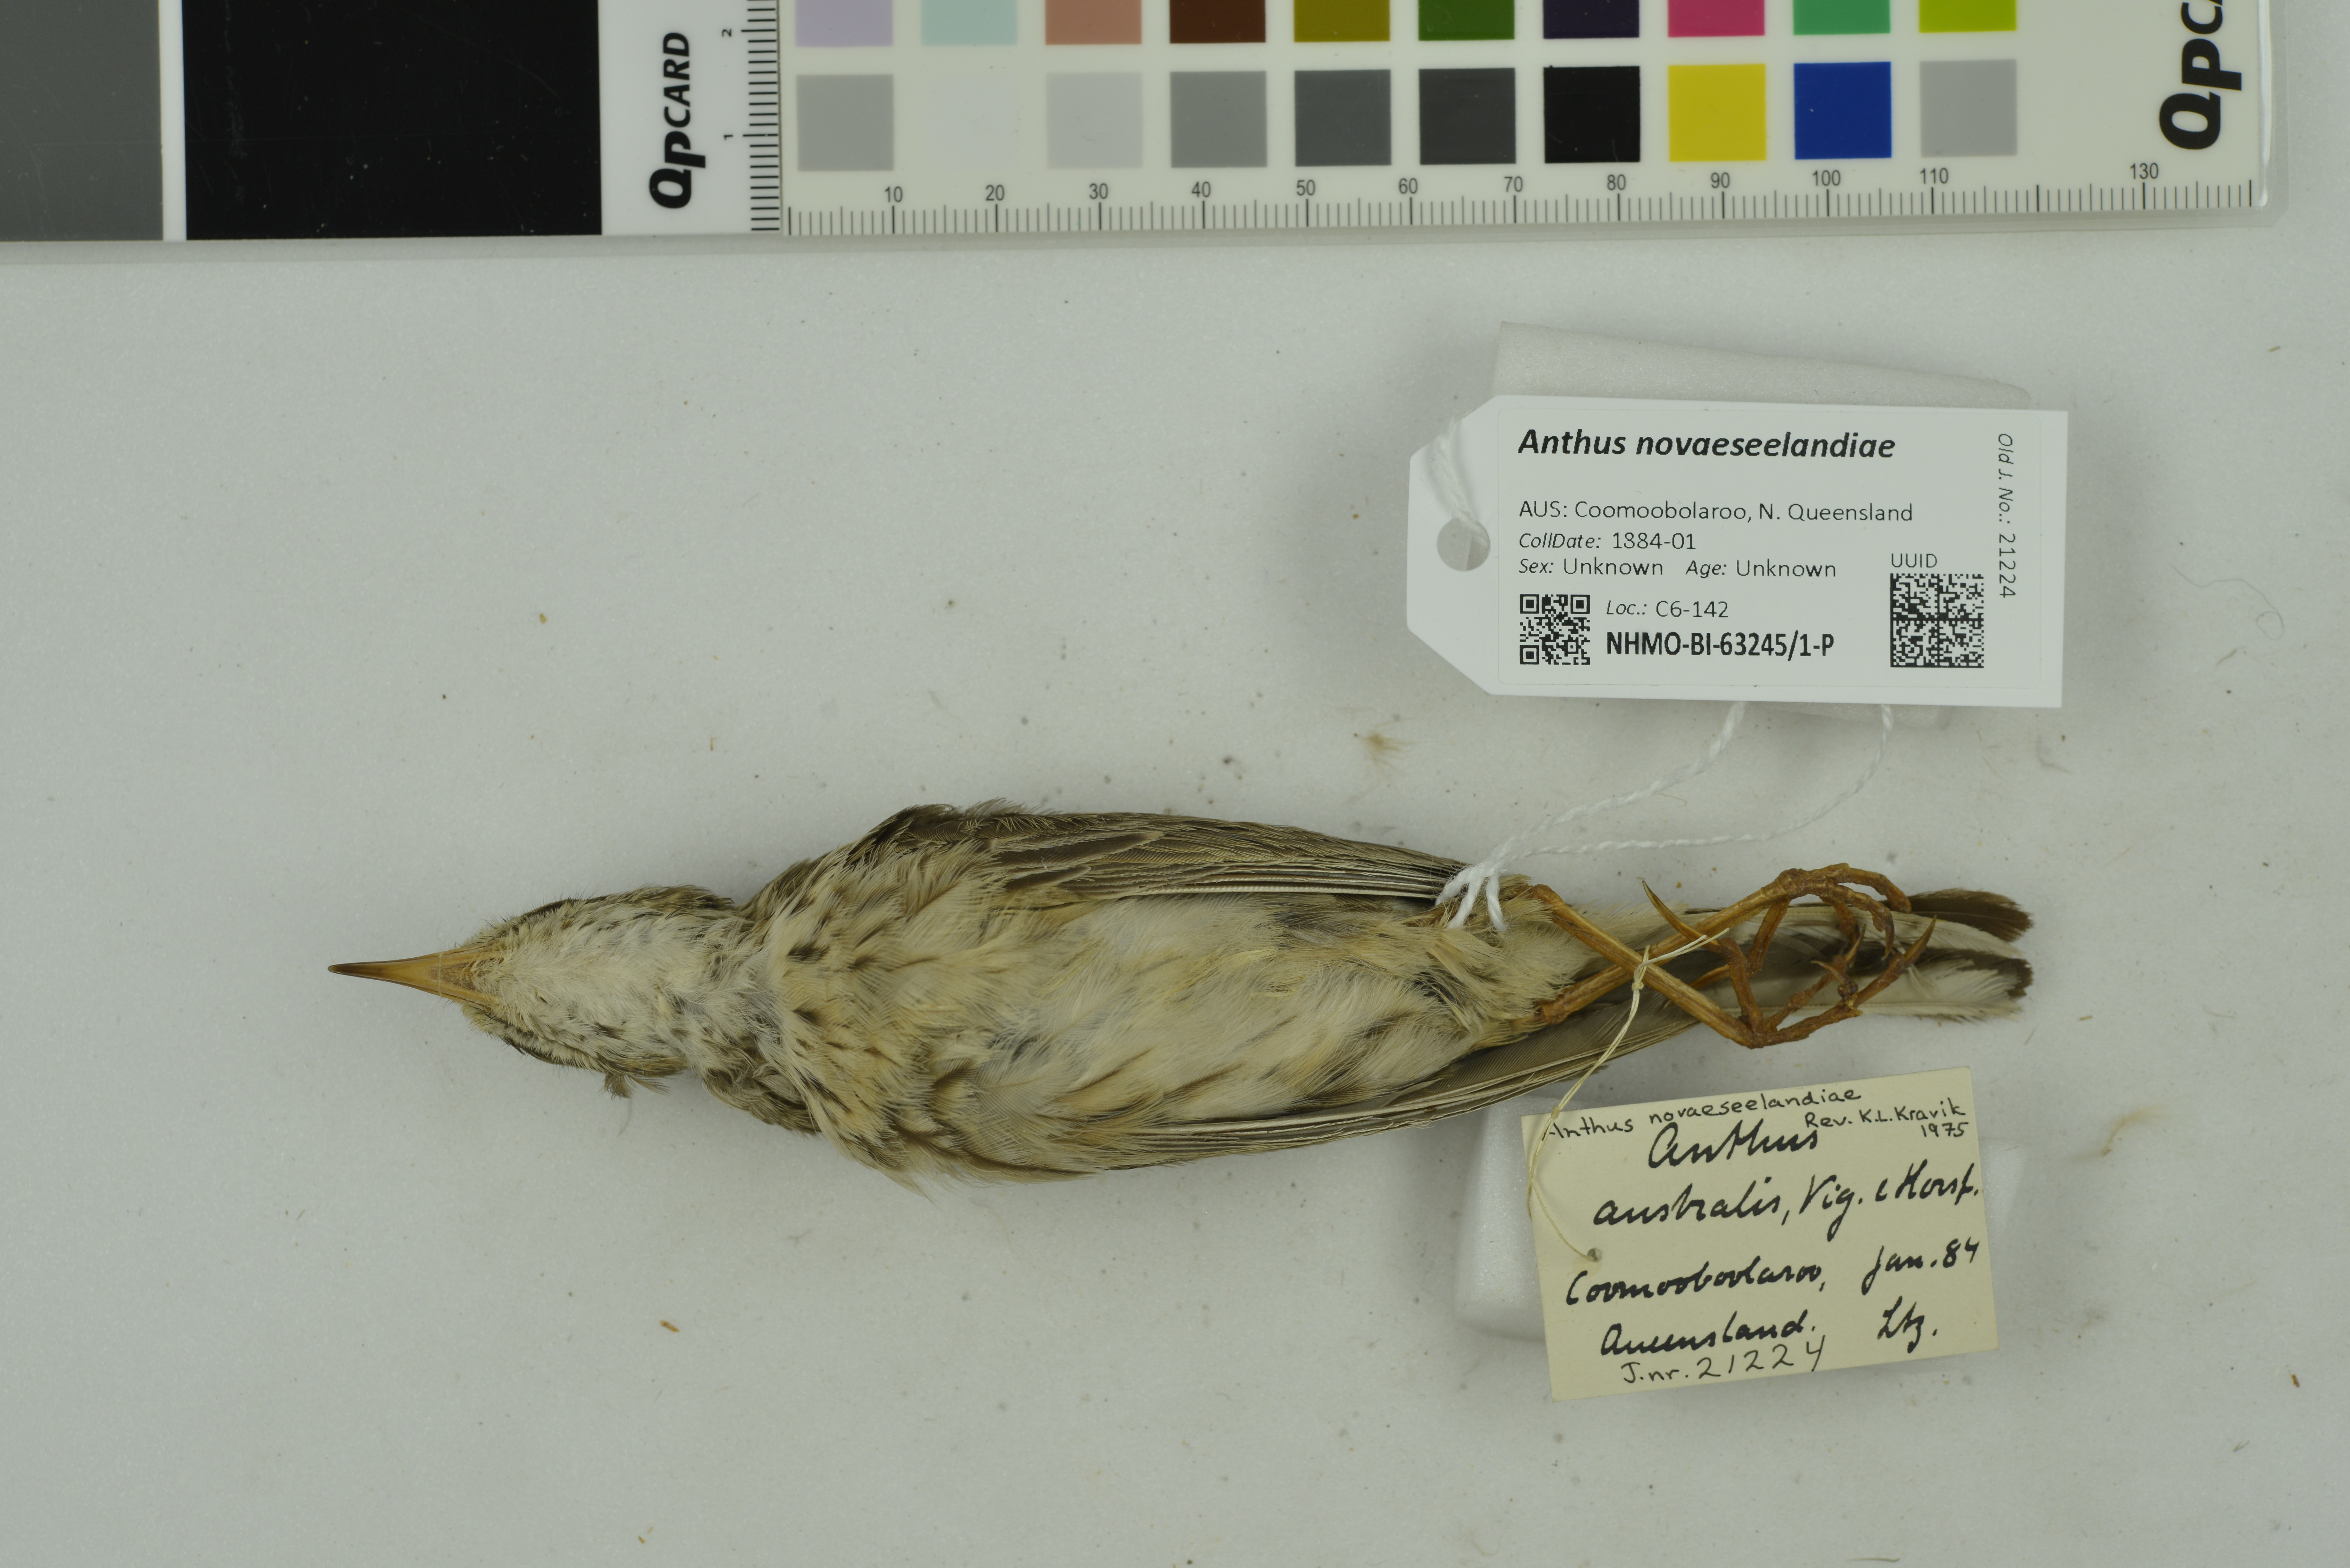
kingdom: Animalia
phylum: Chordata
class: Aves
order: Passeriformes
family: Motacillidae
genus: Anthus
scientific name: Anthus novaeseelandiae
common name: New zealand pipit
